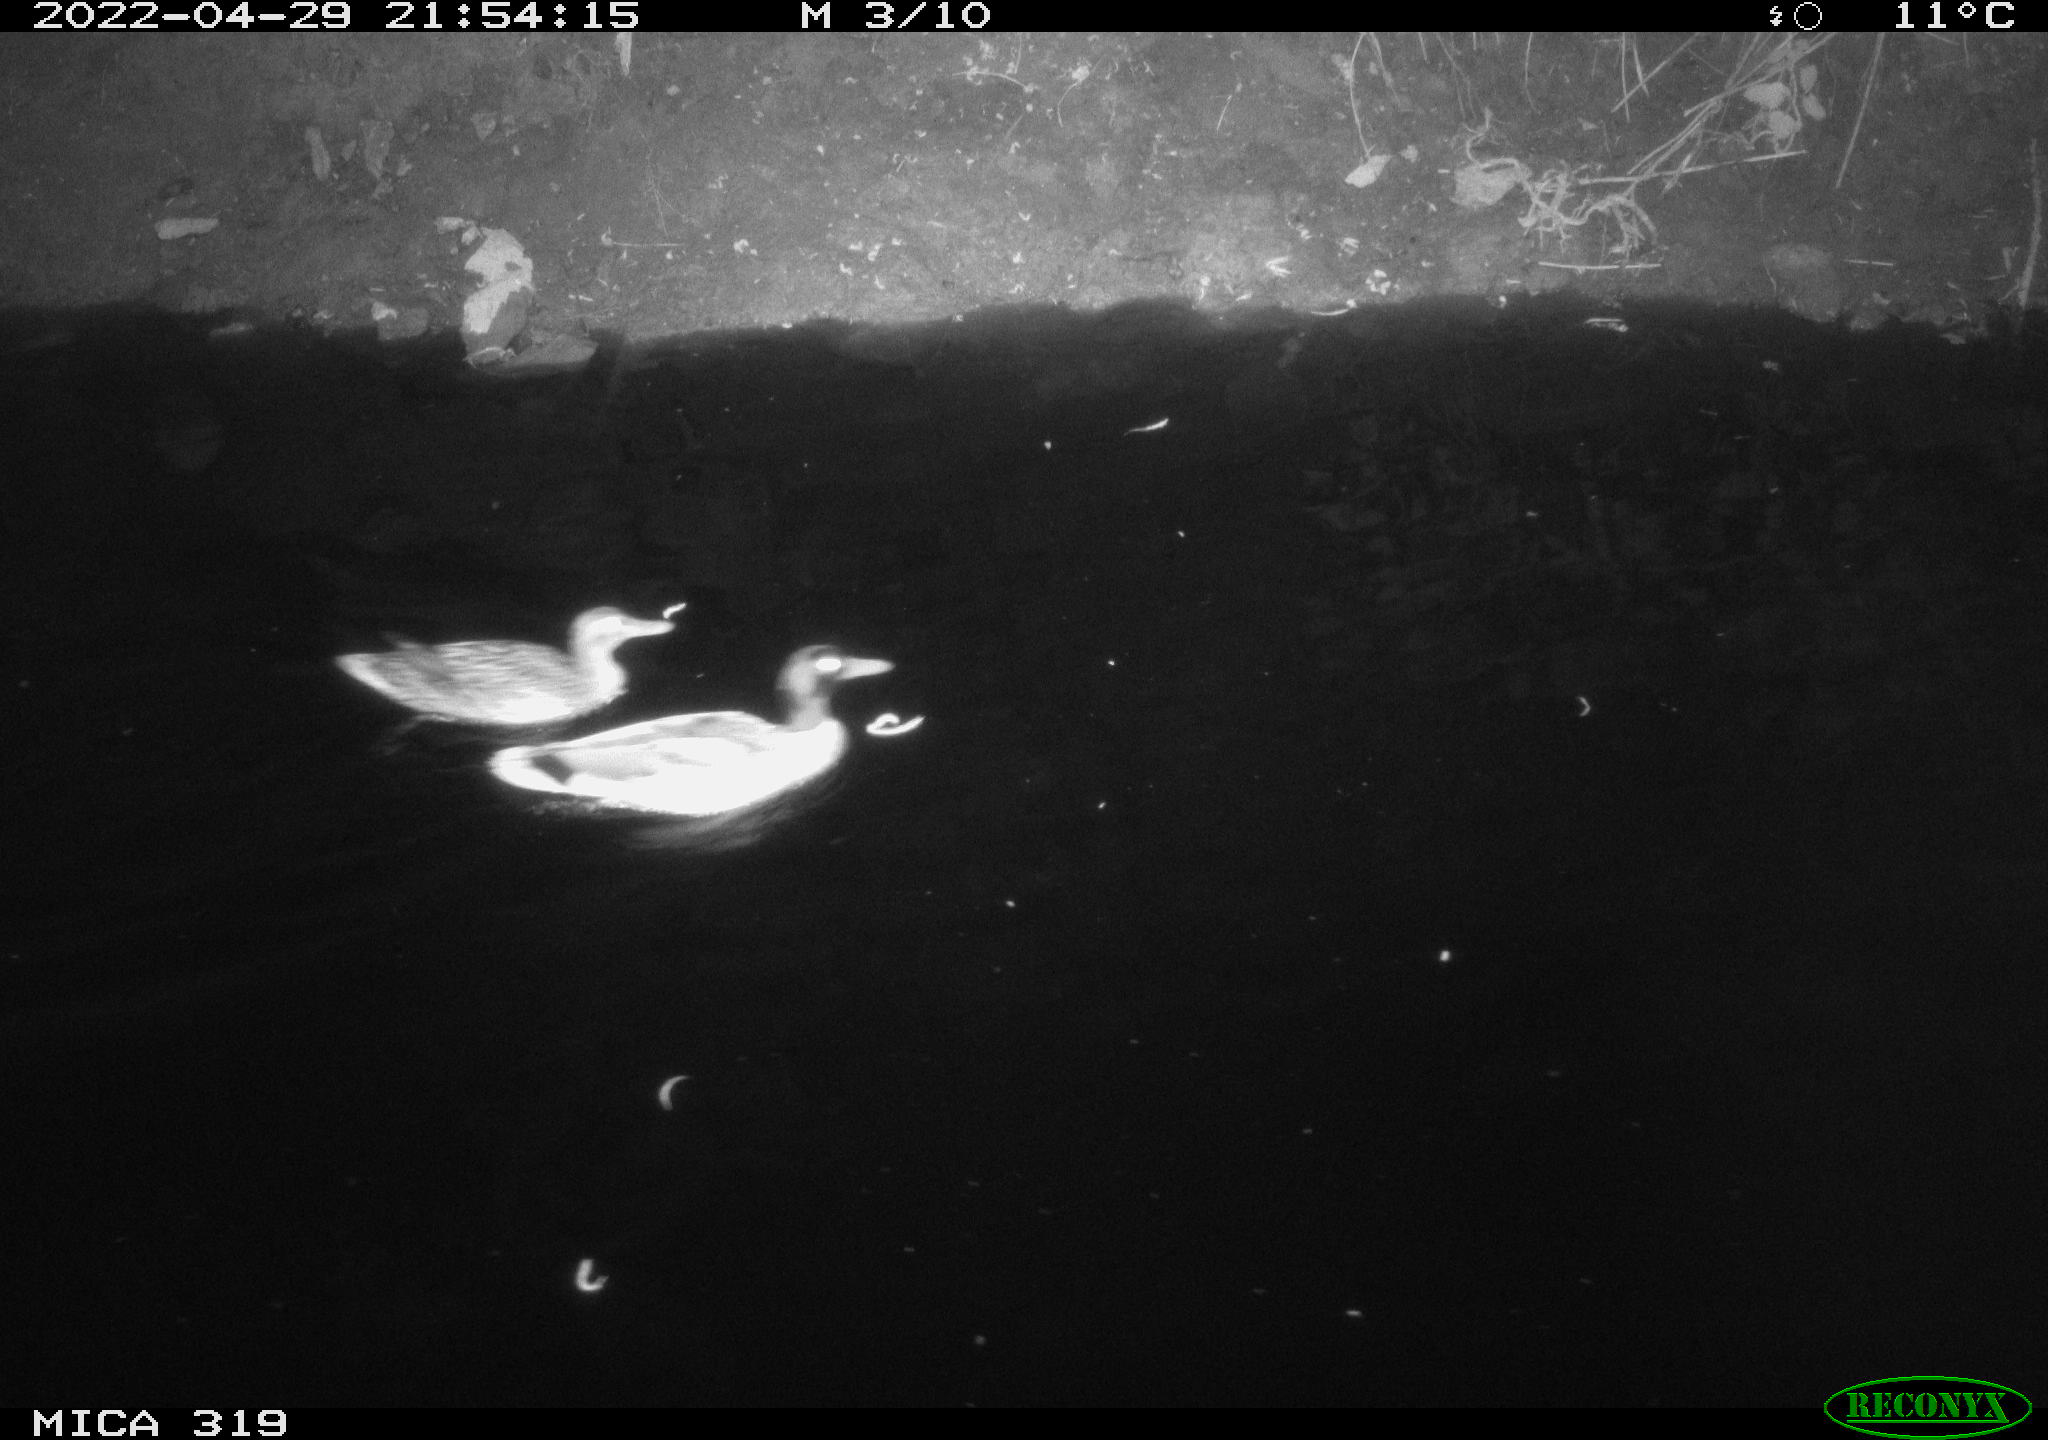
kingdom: Animalia
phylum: Chordata
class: Aves
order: Anseriformes
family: Anatidae
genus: Anas
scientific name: Anas platyrhynchos
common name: Mallard
